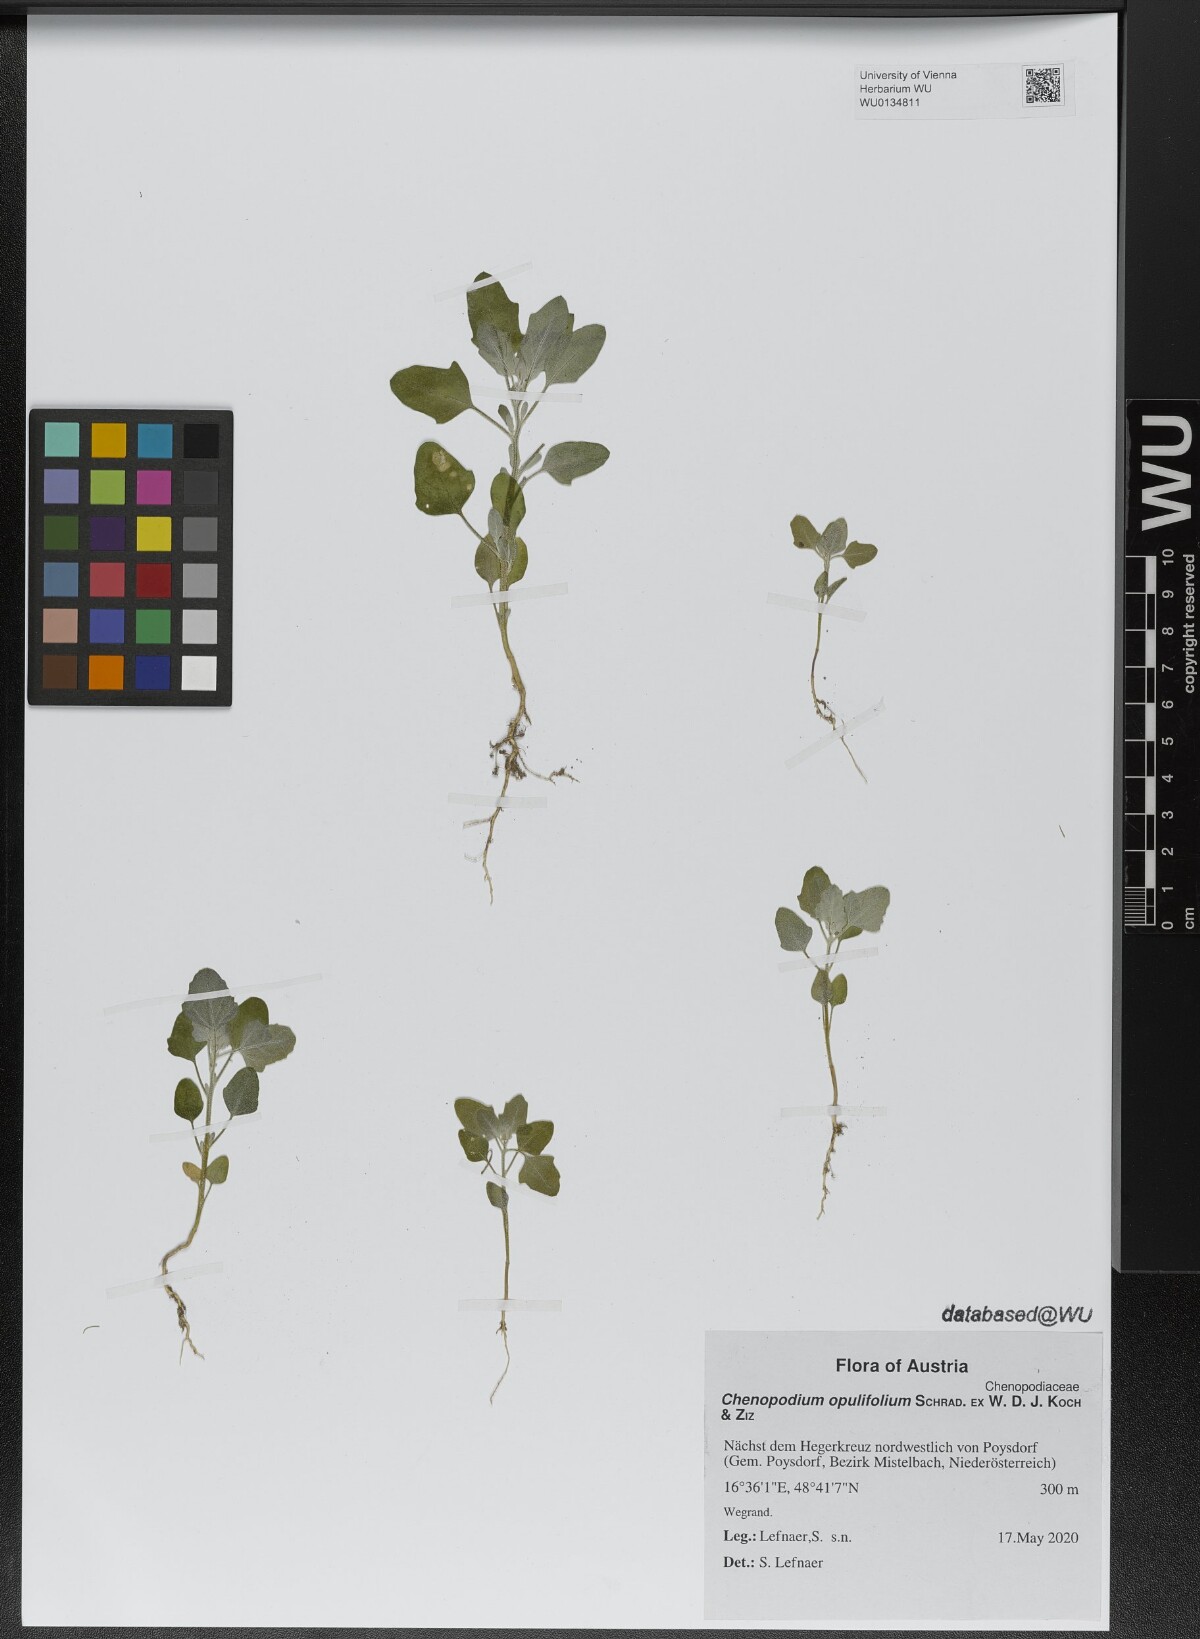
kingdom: Plantae
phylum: Tracheophyta
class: Magnoliopsida
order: Caryophyllales
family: Amaranthaceae
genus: Chenopodium
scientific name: Chenopodium opulifolium
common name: Grey goosefoot
